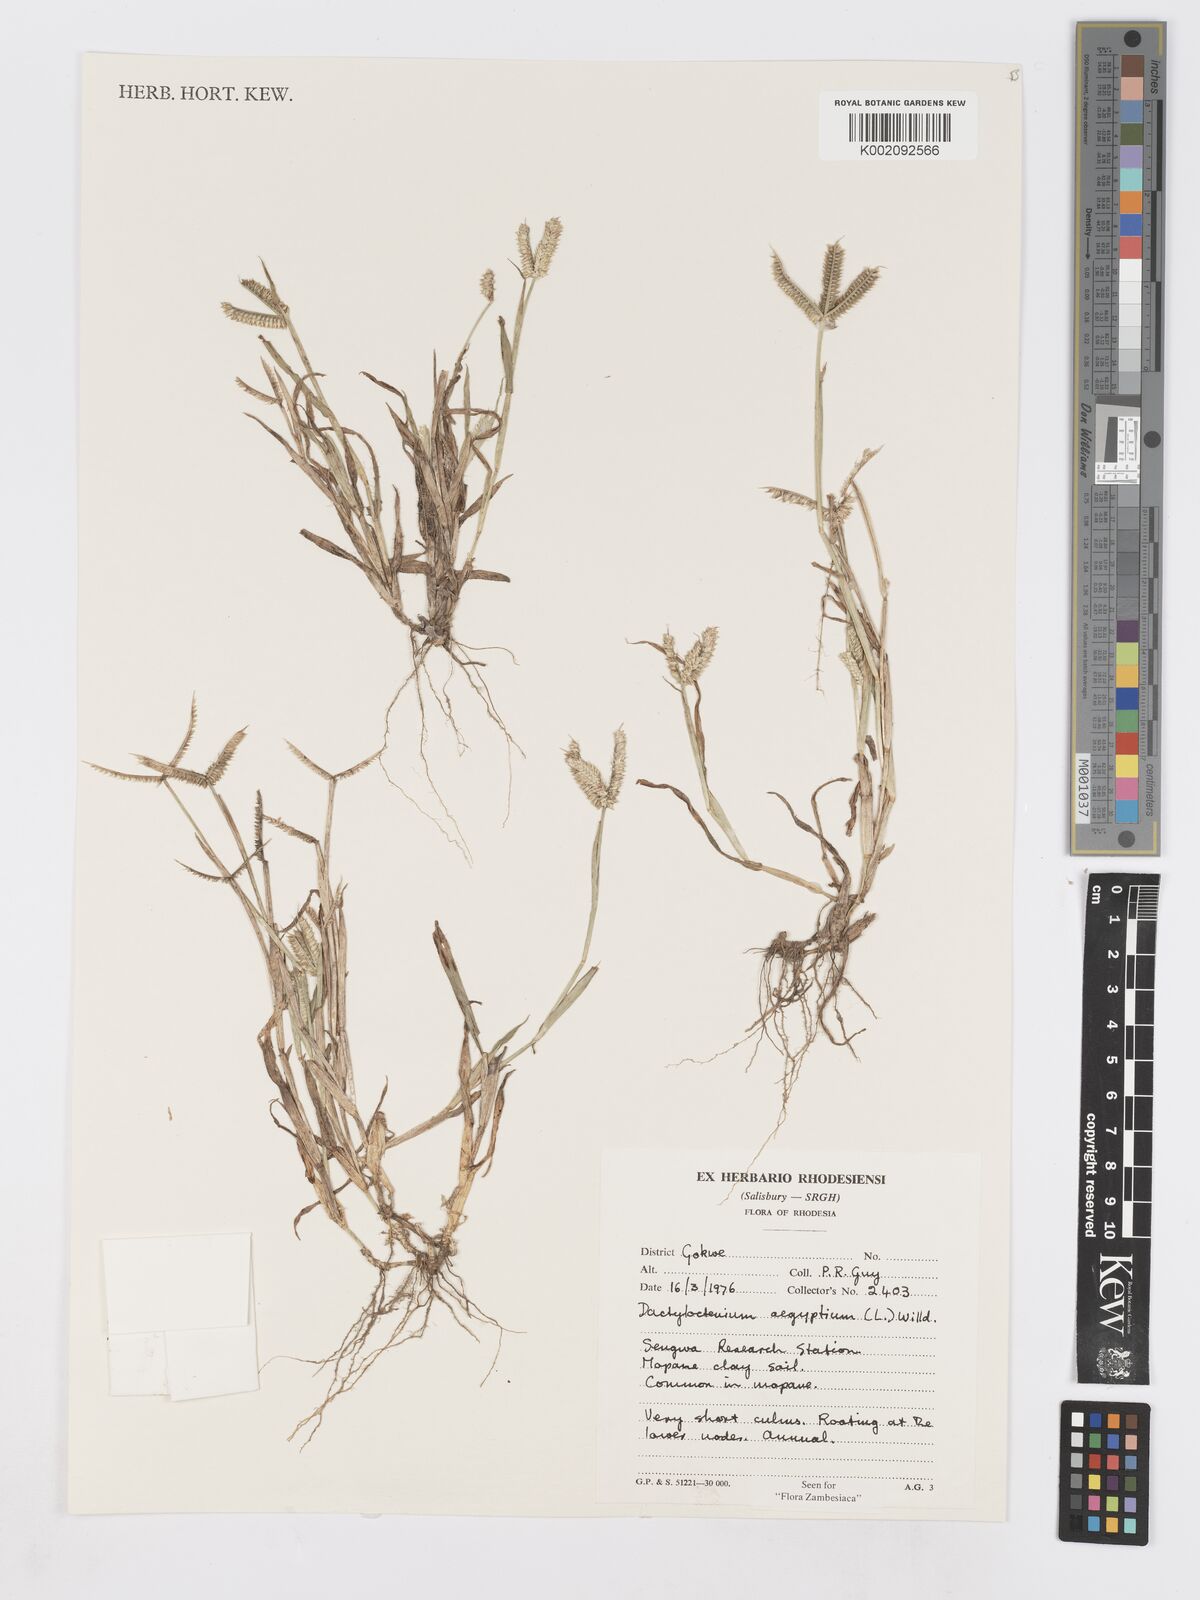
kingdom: Plantae
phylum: Tracheophyta
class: Liliopsida
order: Poales
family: Poaceae
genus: Dactyloctenium
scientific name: Dactyloctenium aegyptium
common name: Egyptian grass
